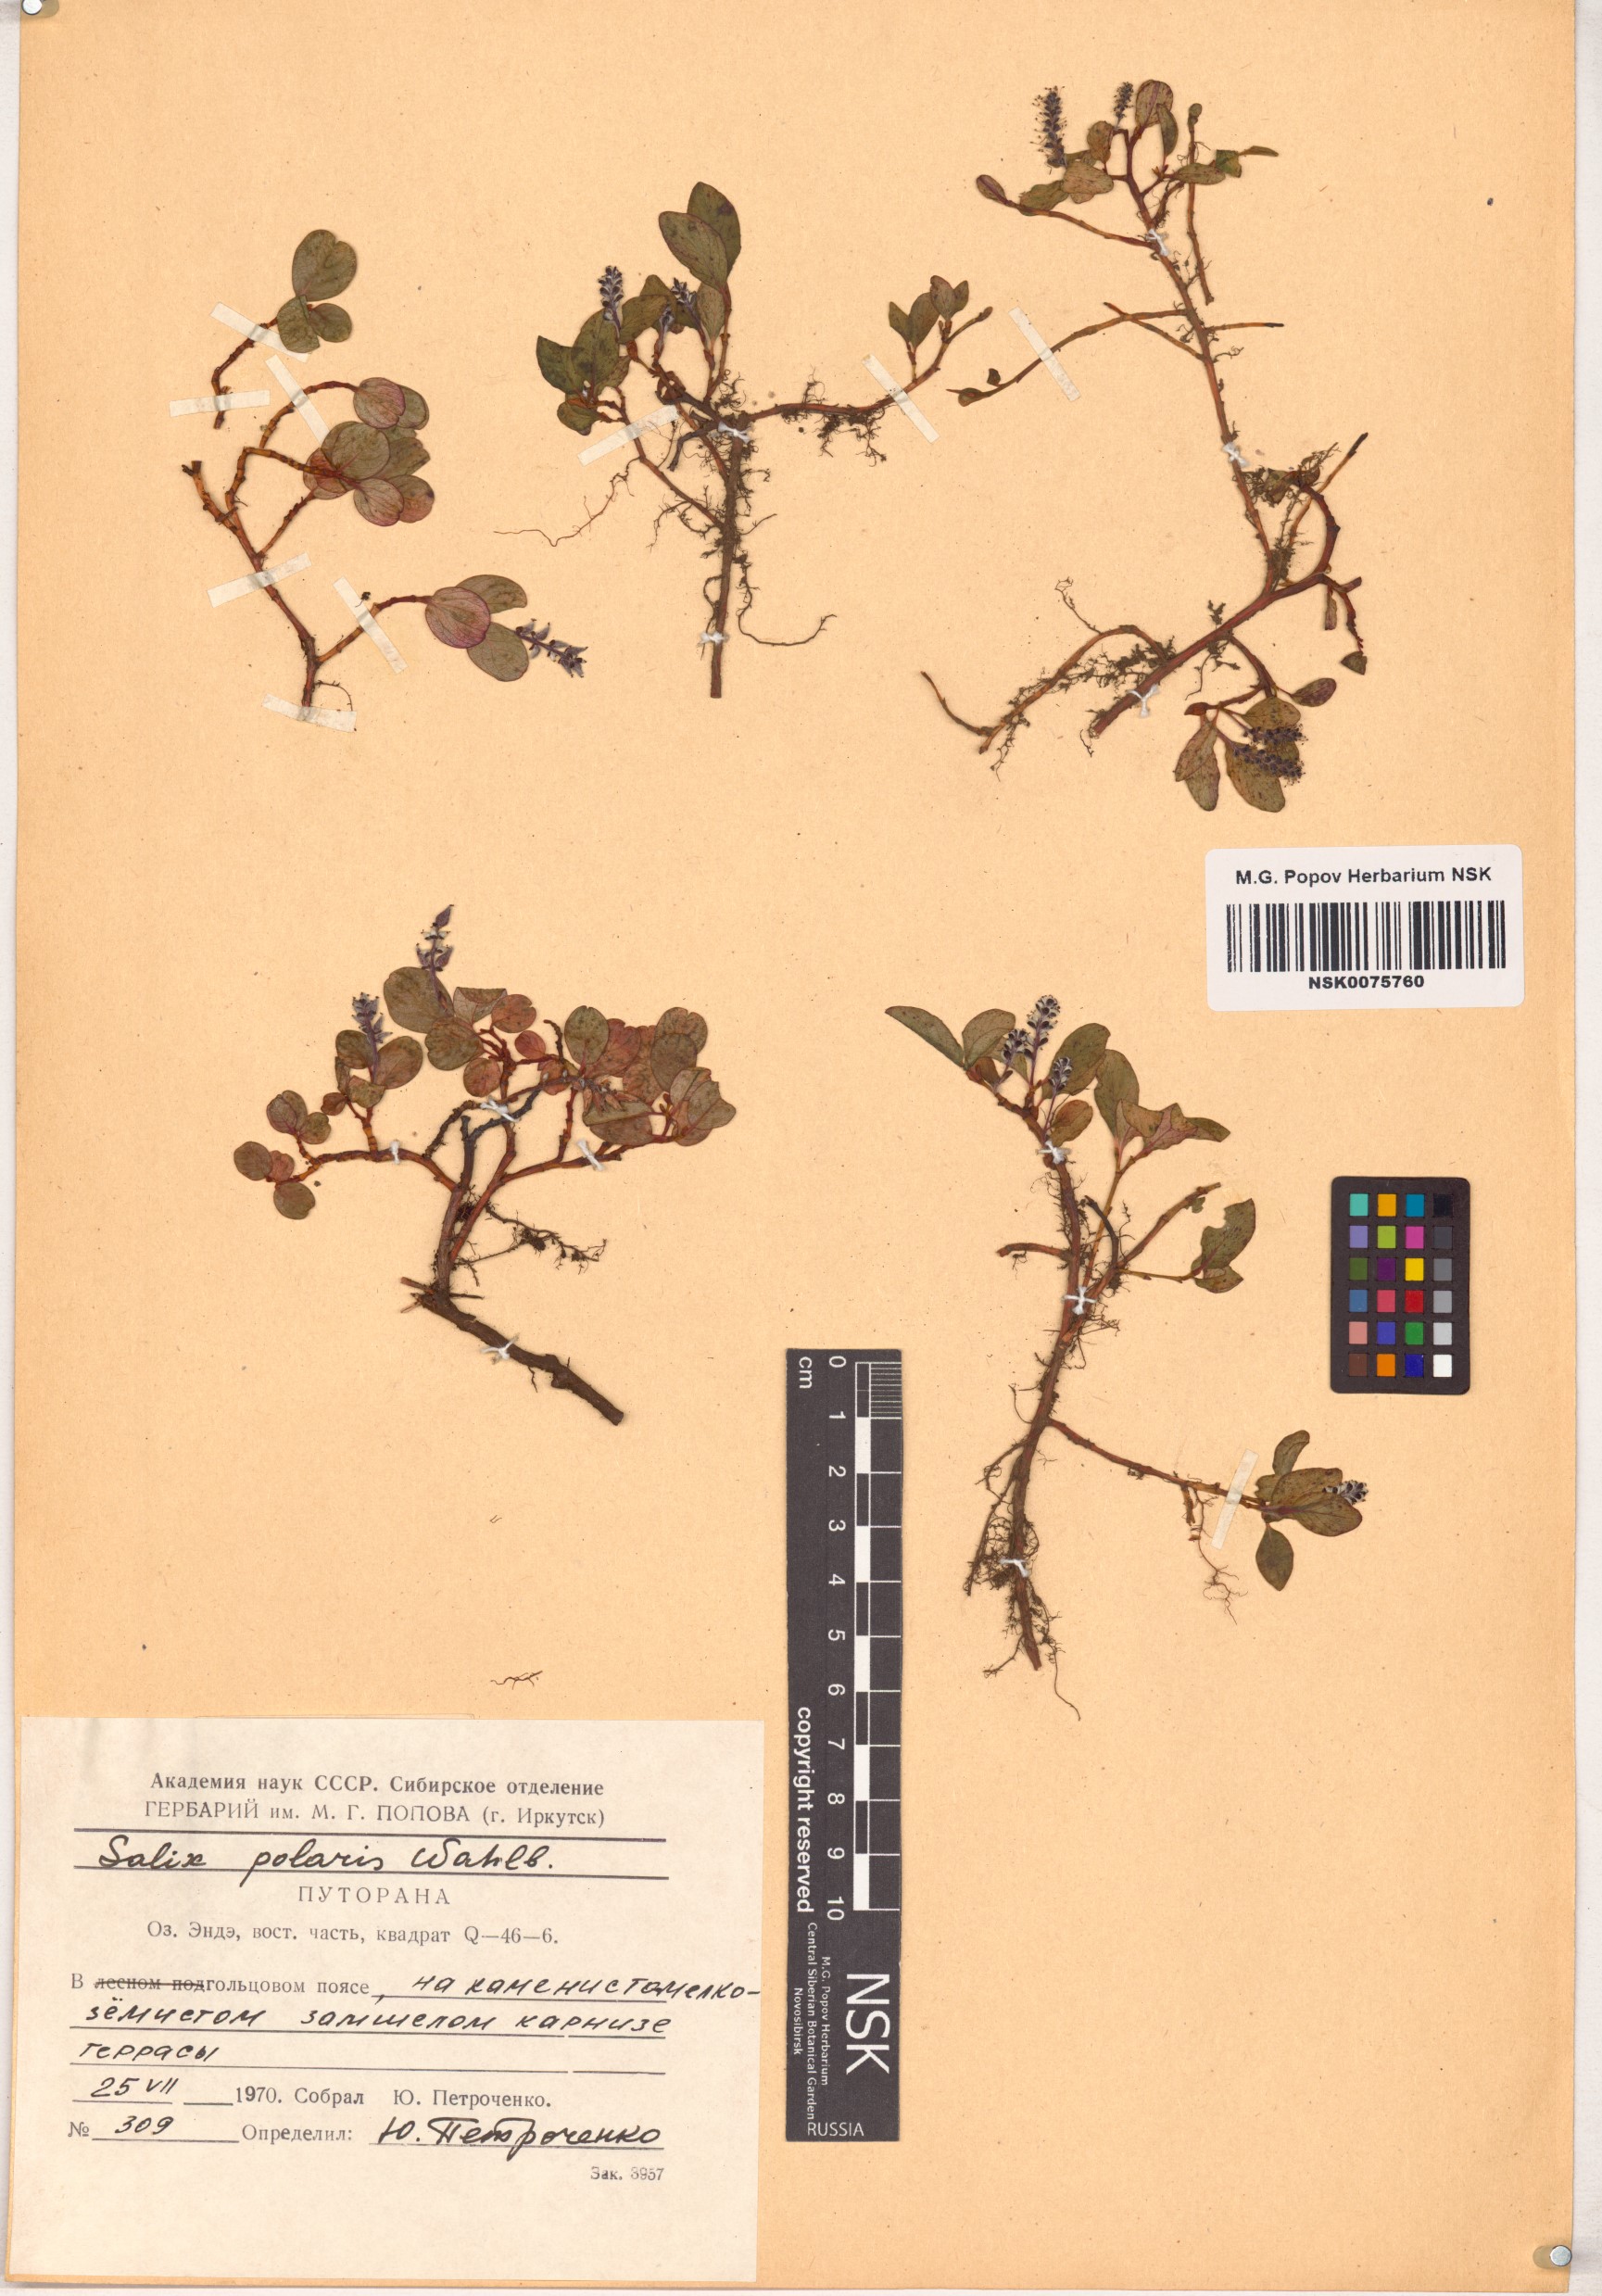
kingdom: Plantae
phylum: Tracheophyta
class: Magnoliopsida
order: Malpighiales
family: Salicaceae
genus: Salix
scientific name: Salix polaris
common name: Polar willow
